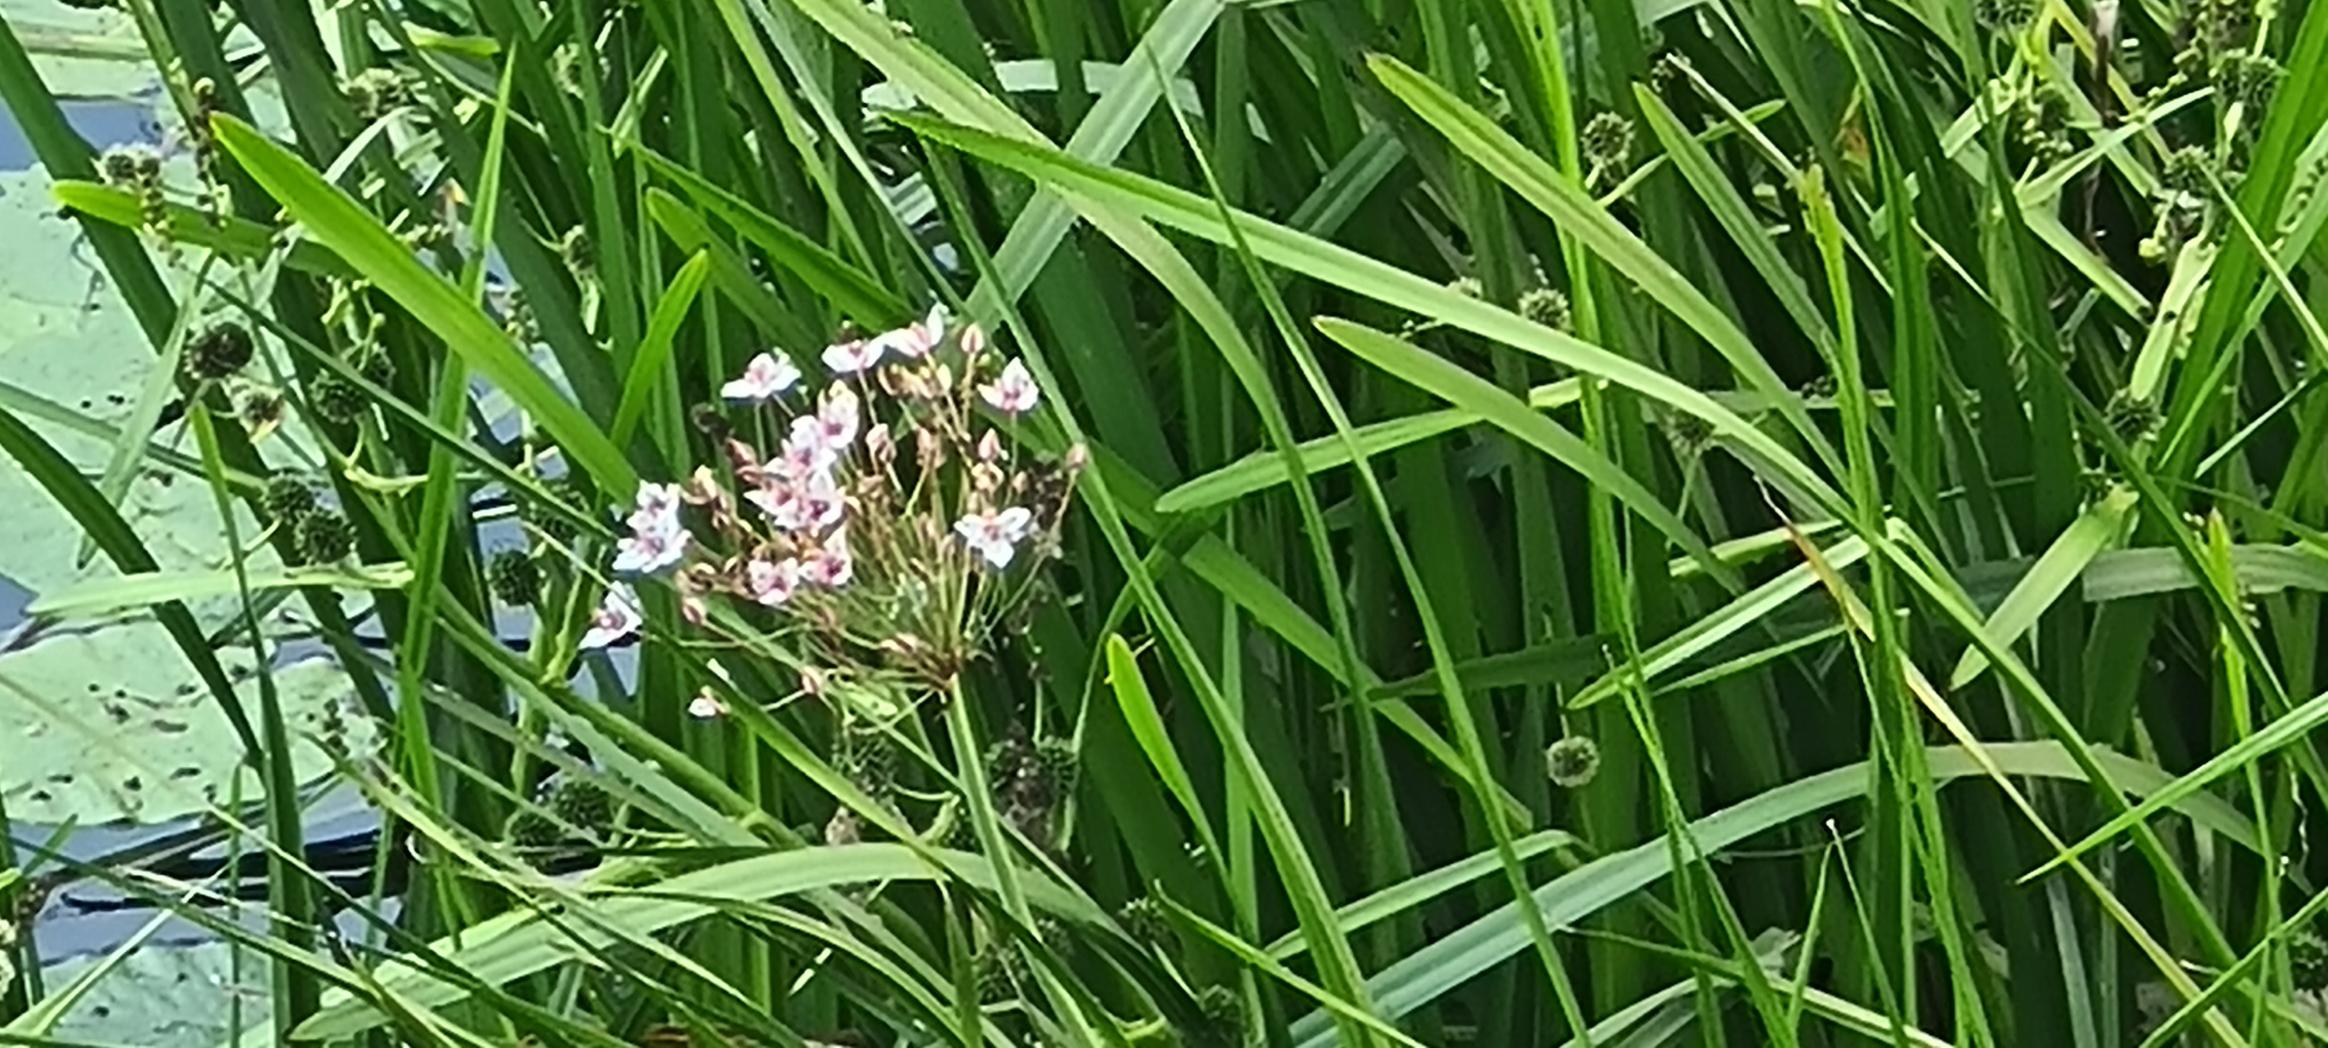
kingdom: Plantae
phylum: Tracheophyta
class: Liliopsida
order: Alismatales
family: Butomaceae
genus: Butomus
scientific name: Butomus umbellatus
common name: Brudelys
